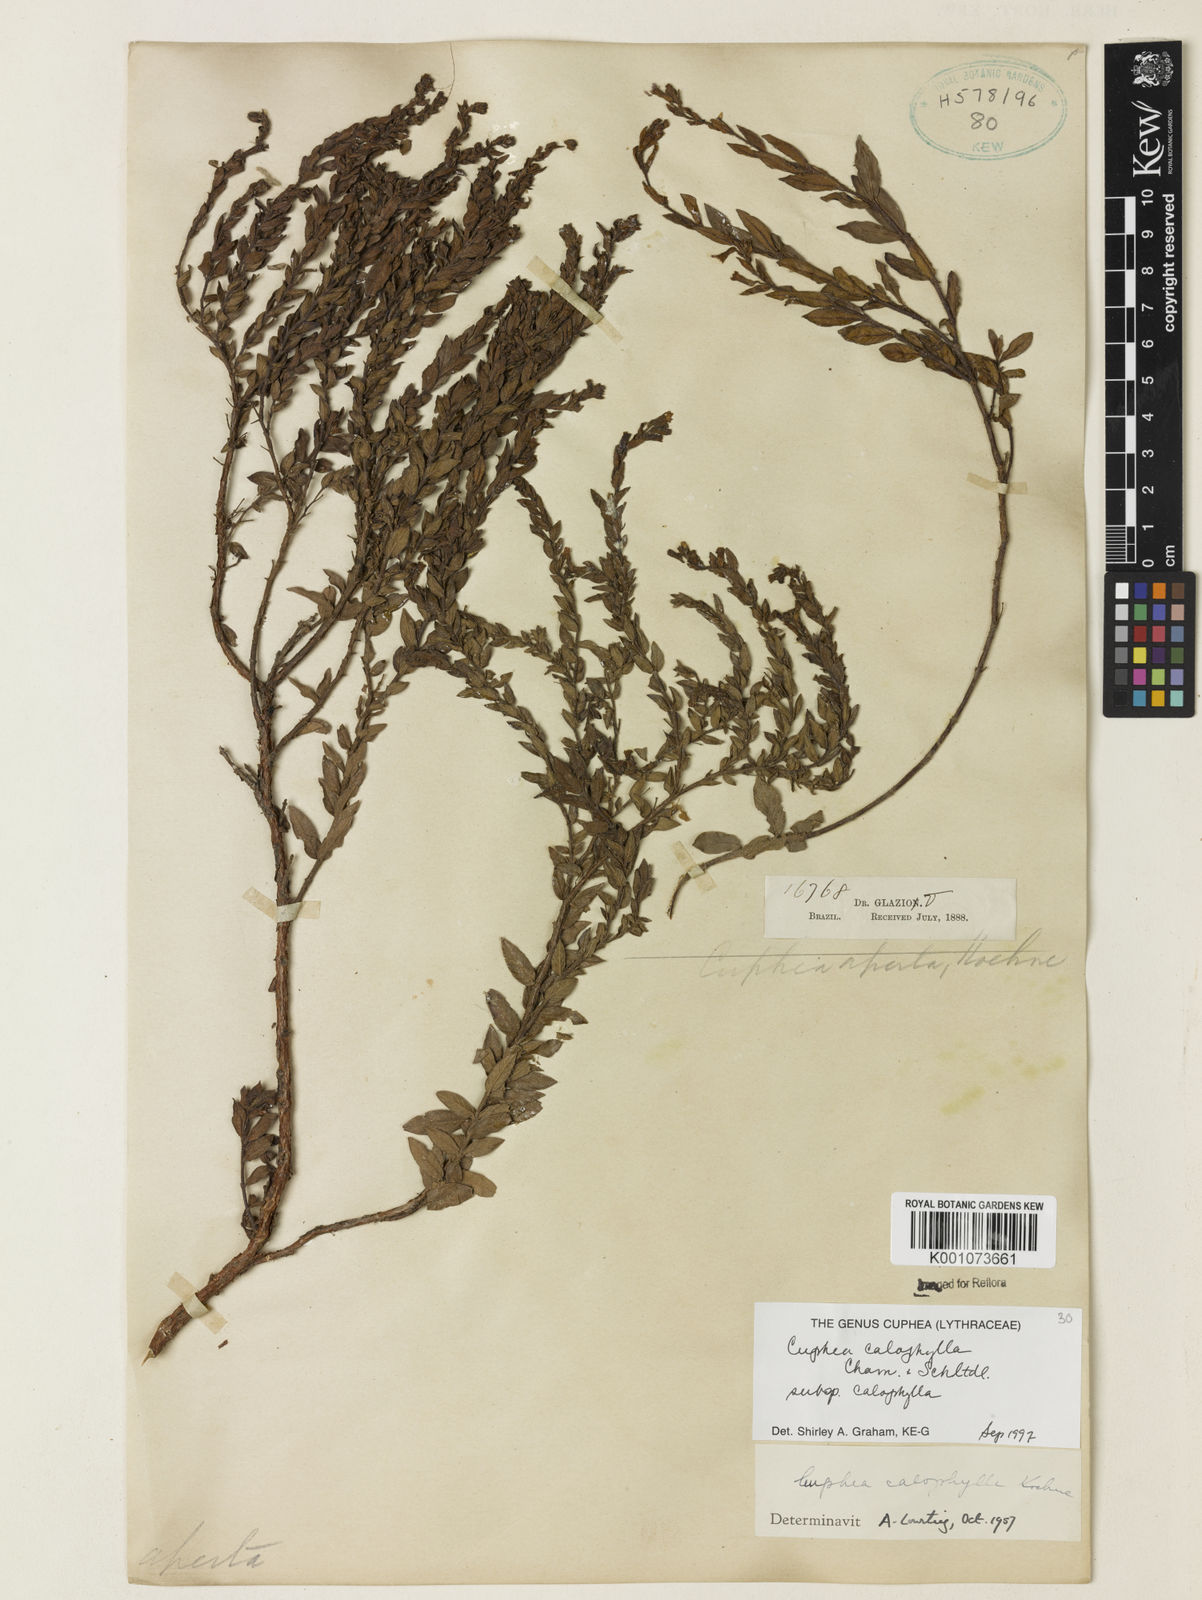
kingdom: Plantae
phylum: Tracheophyta
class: Magnoliopsida
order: Myrtales
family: Lythraceae
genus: Cuphea
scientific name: Cuphea calophylla
